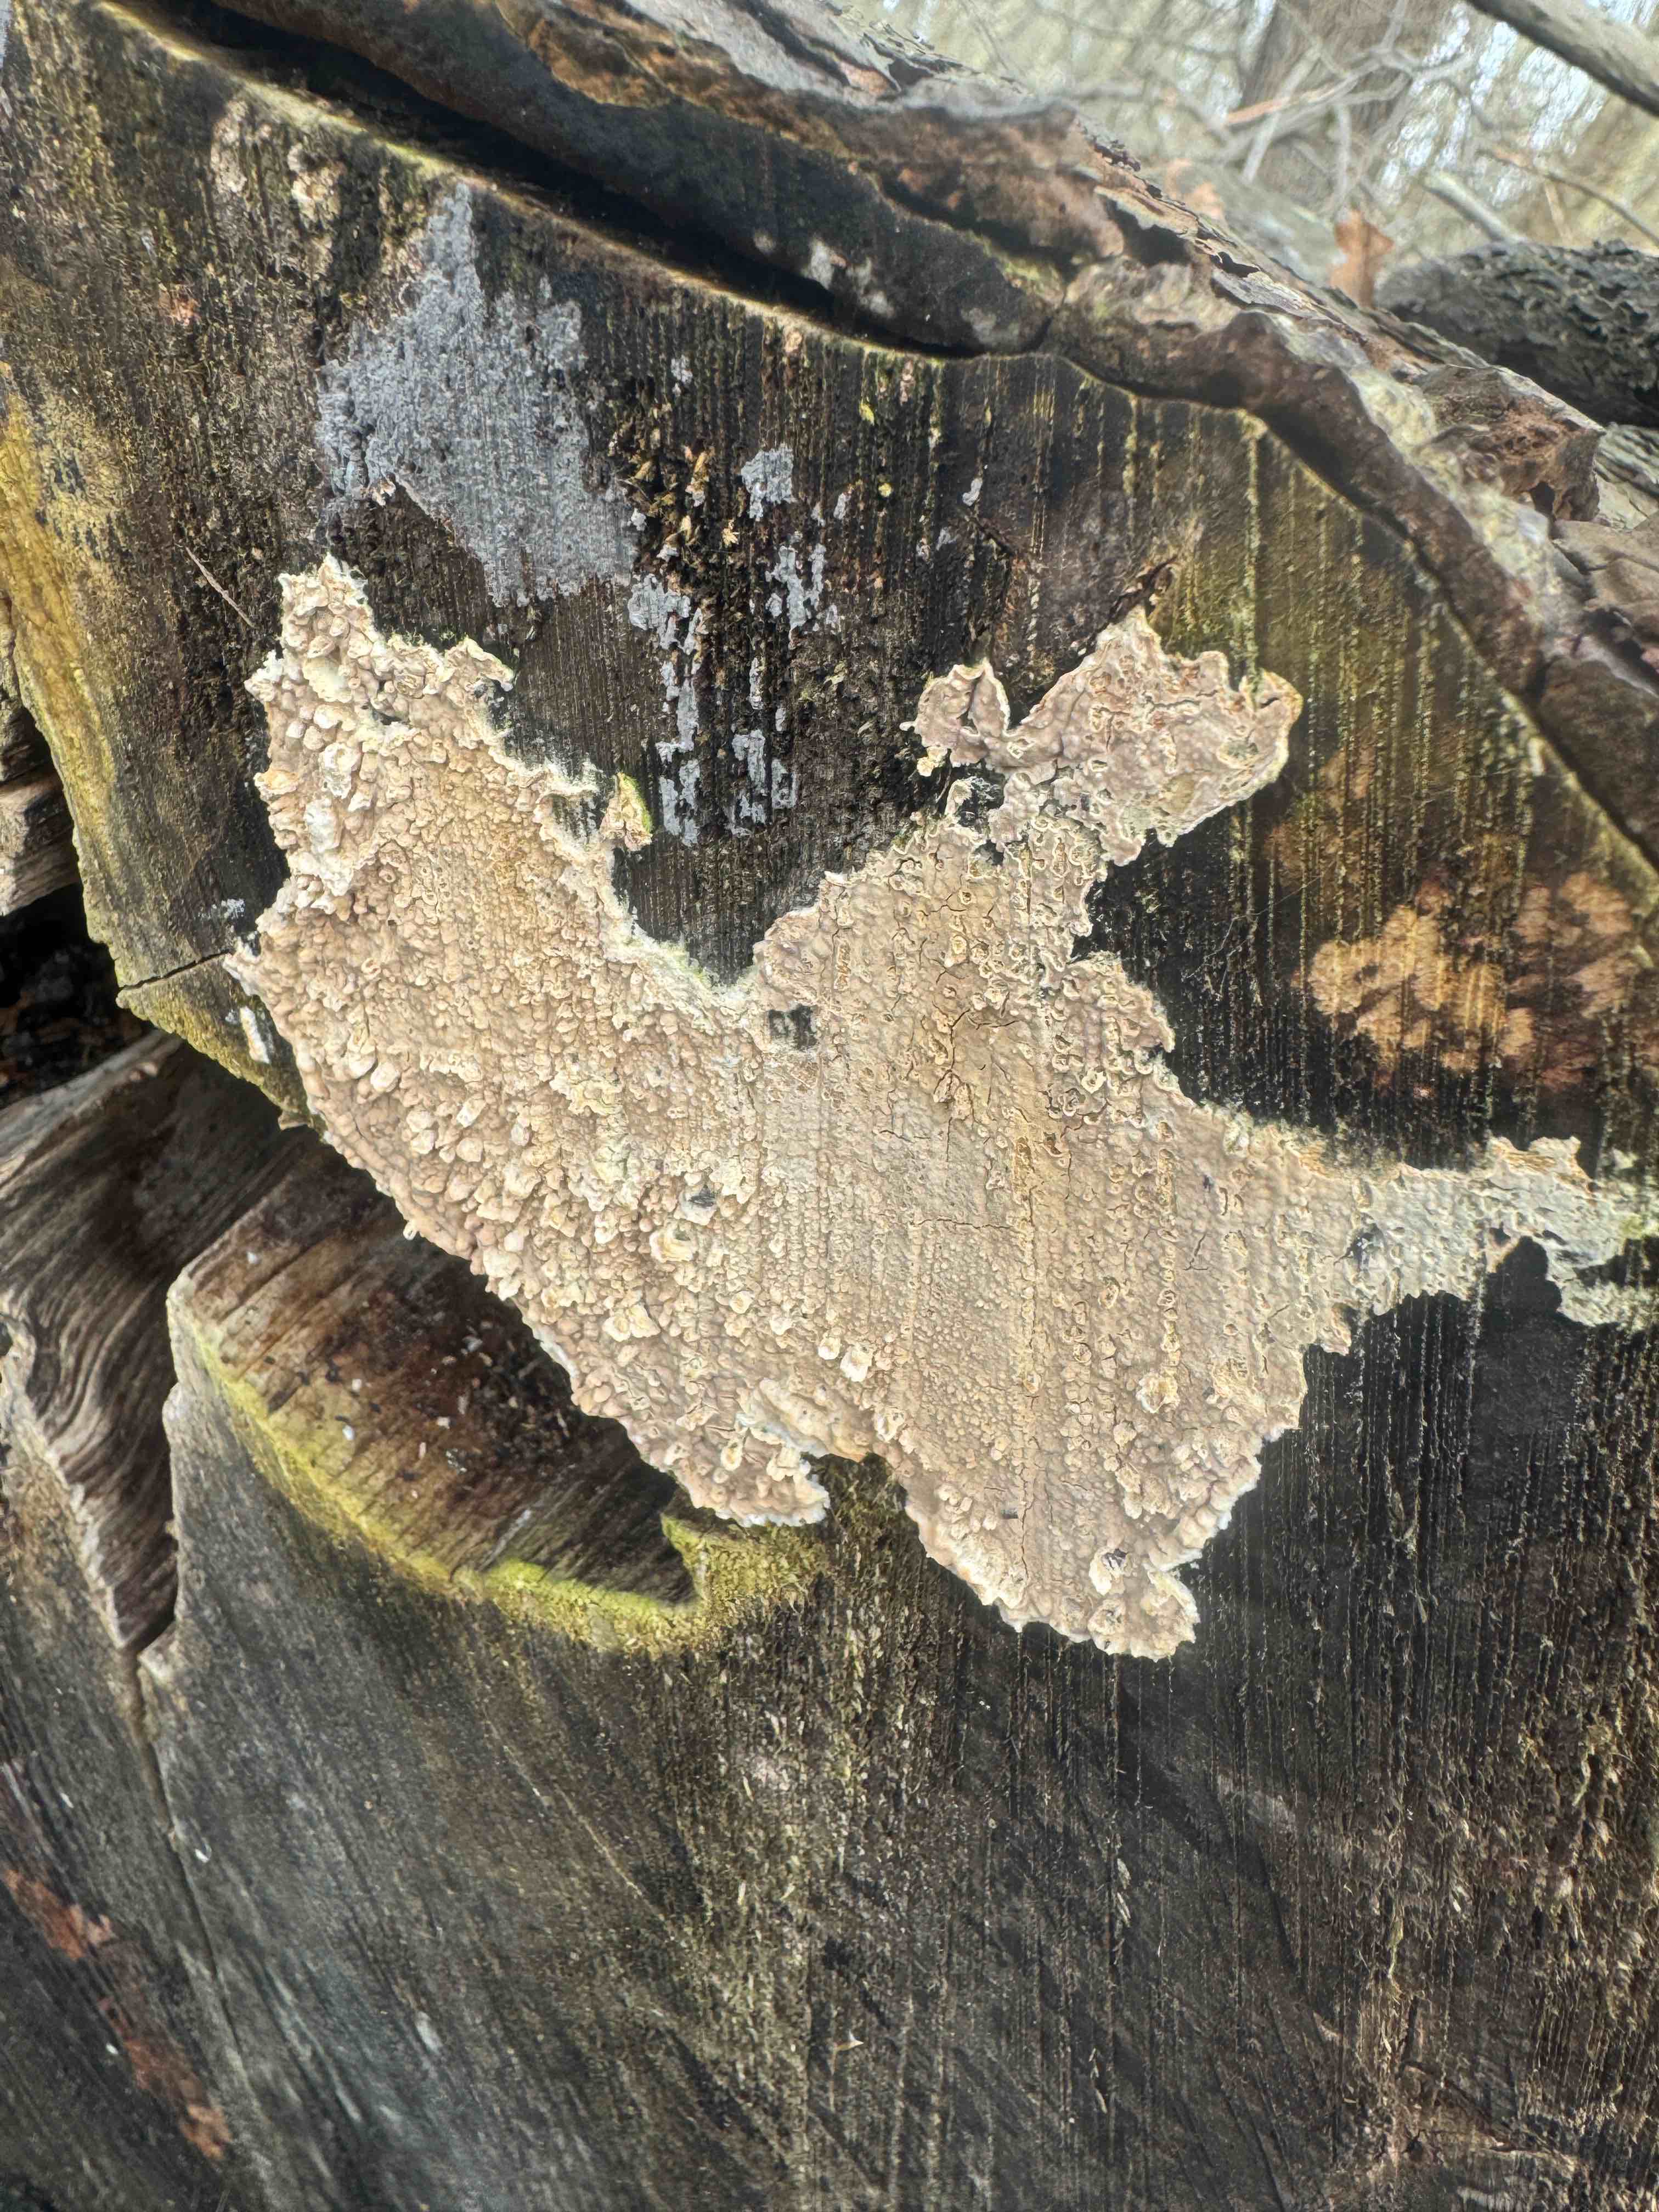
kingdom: Fungi
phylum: Basidiomycota
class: Agaricomycetes
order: Agaricales
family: Physalacriaceae
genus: Cylindrobasidium
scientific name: Cylindrobasidium evolvens
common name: sprækkehinde
